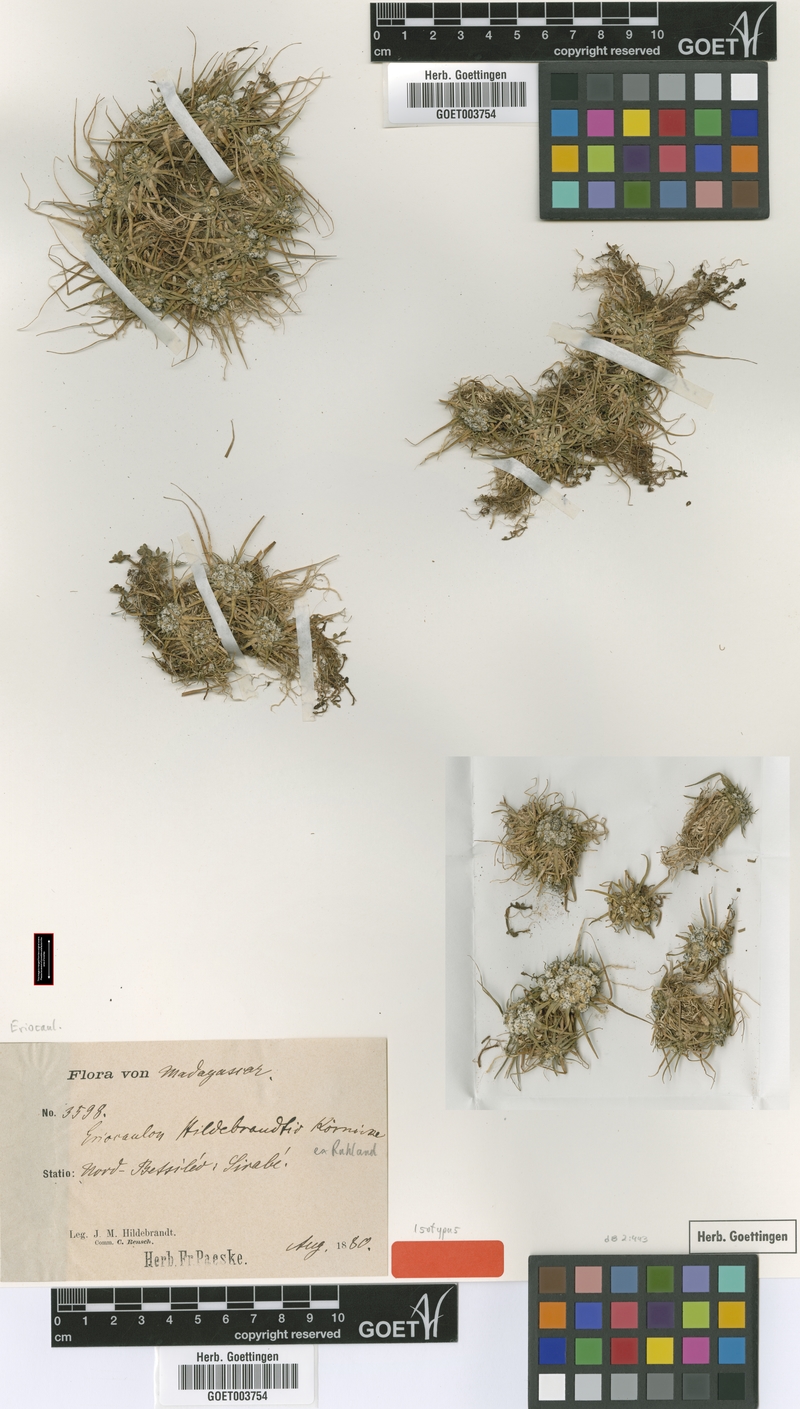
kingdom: Plantae
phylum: Tracheophyta
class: Liliopsida
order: Poales
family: Eriocaulaceae
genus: Eriocaulon
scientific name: Eriocaulon hildebrandtii
